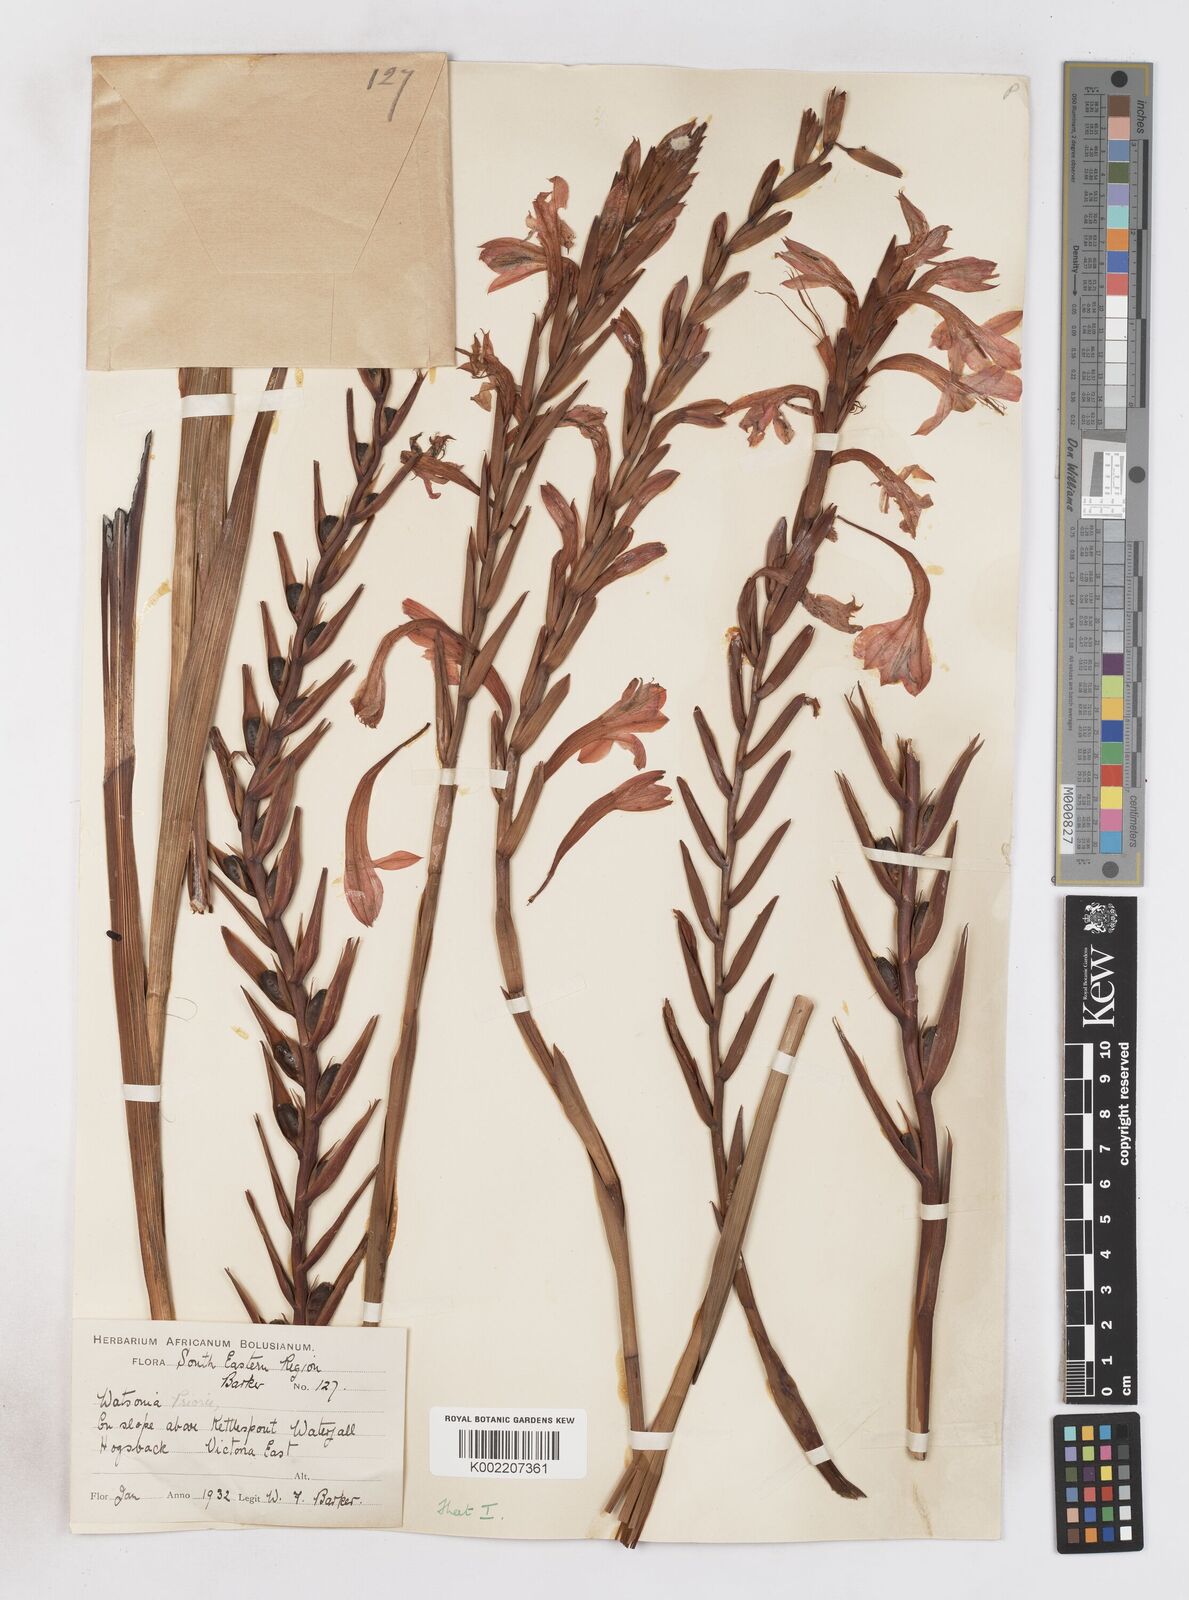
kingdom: Plantae
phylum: Tracheophyta
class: Liliopsida
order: Asparagales
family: Iridaceae
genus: Watsonia
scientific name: Watsonia pillansii
